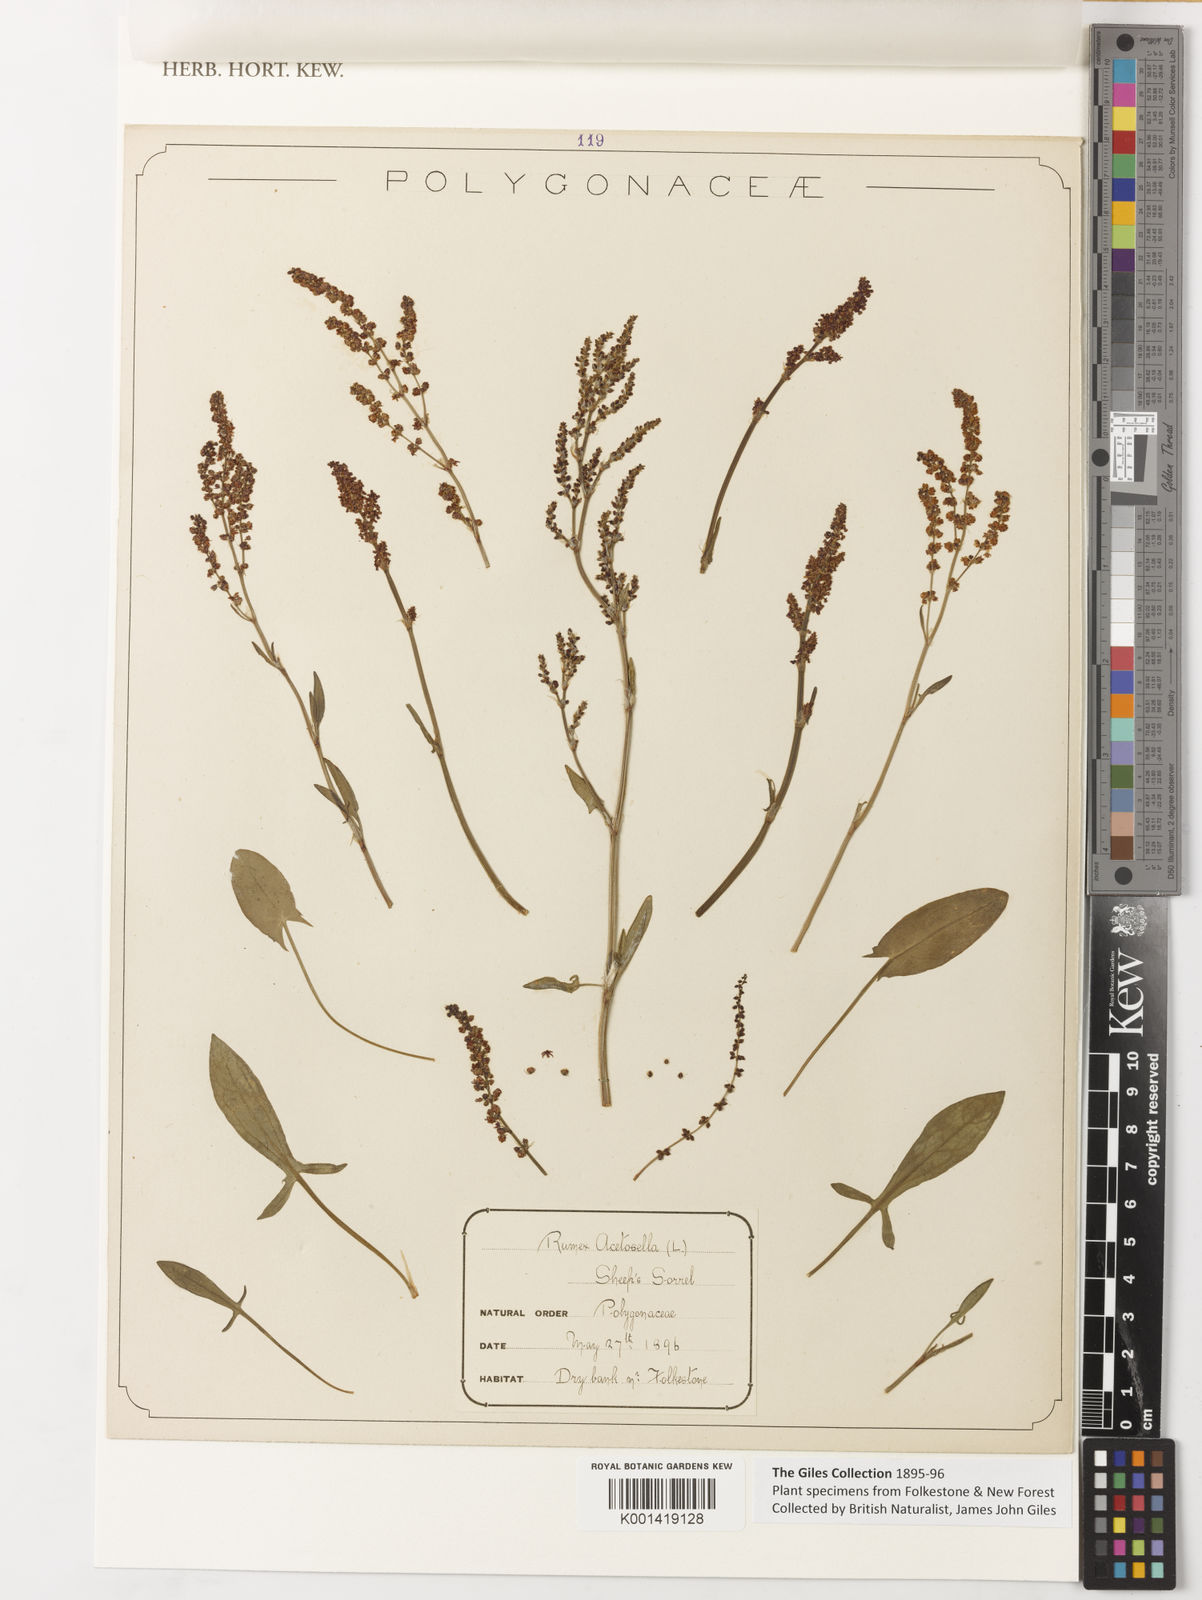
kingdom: Plantae
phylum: Tracheophyta
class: Magnoliopsida
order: Caryophyllales
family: Polygonaceae
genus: Rumex
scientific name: Rumex acetosella
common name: Common sheep sorrel
